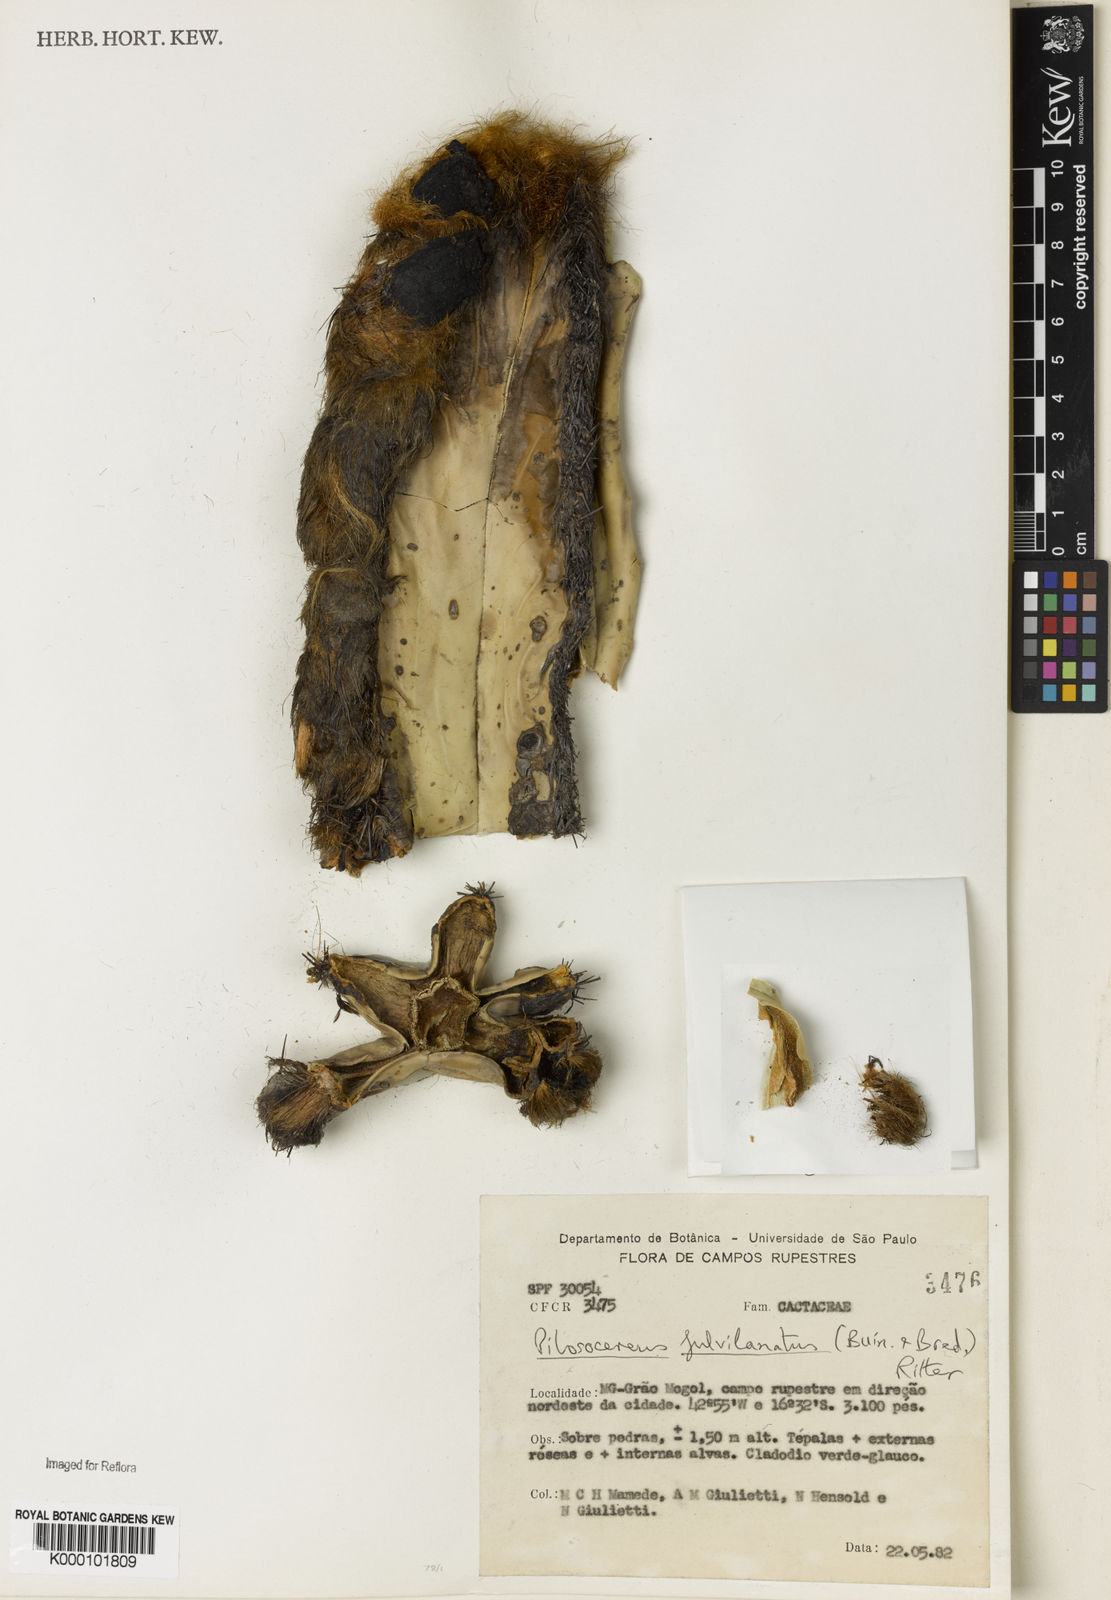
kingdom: Plantae
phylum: Tracheophyta
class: Magnoliopsida
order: Caryophyllales
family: Cactaceae
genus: Pilosocereus
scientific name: Pilosocereus fulvilanatus
